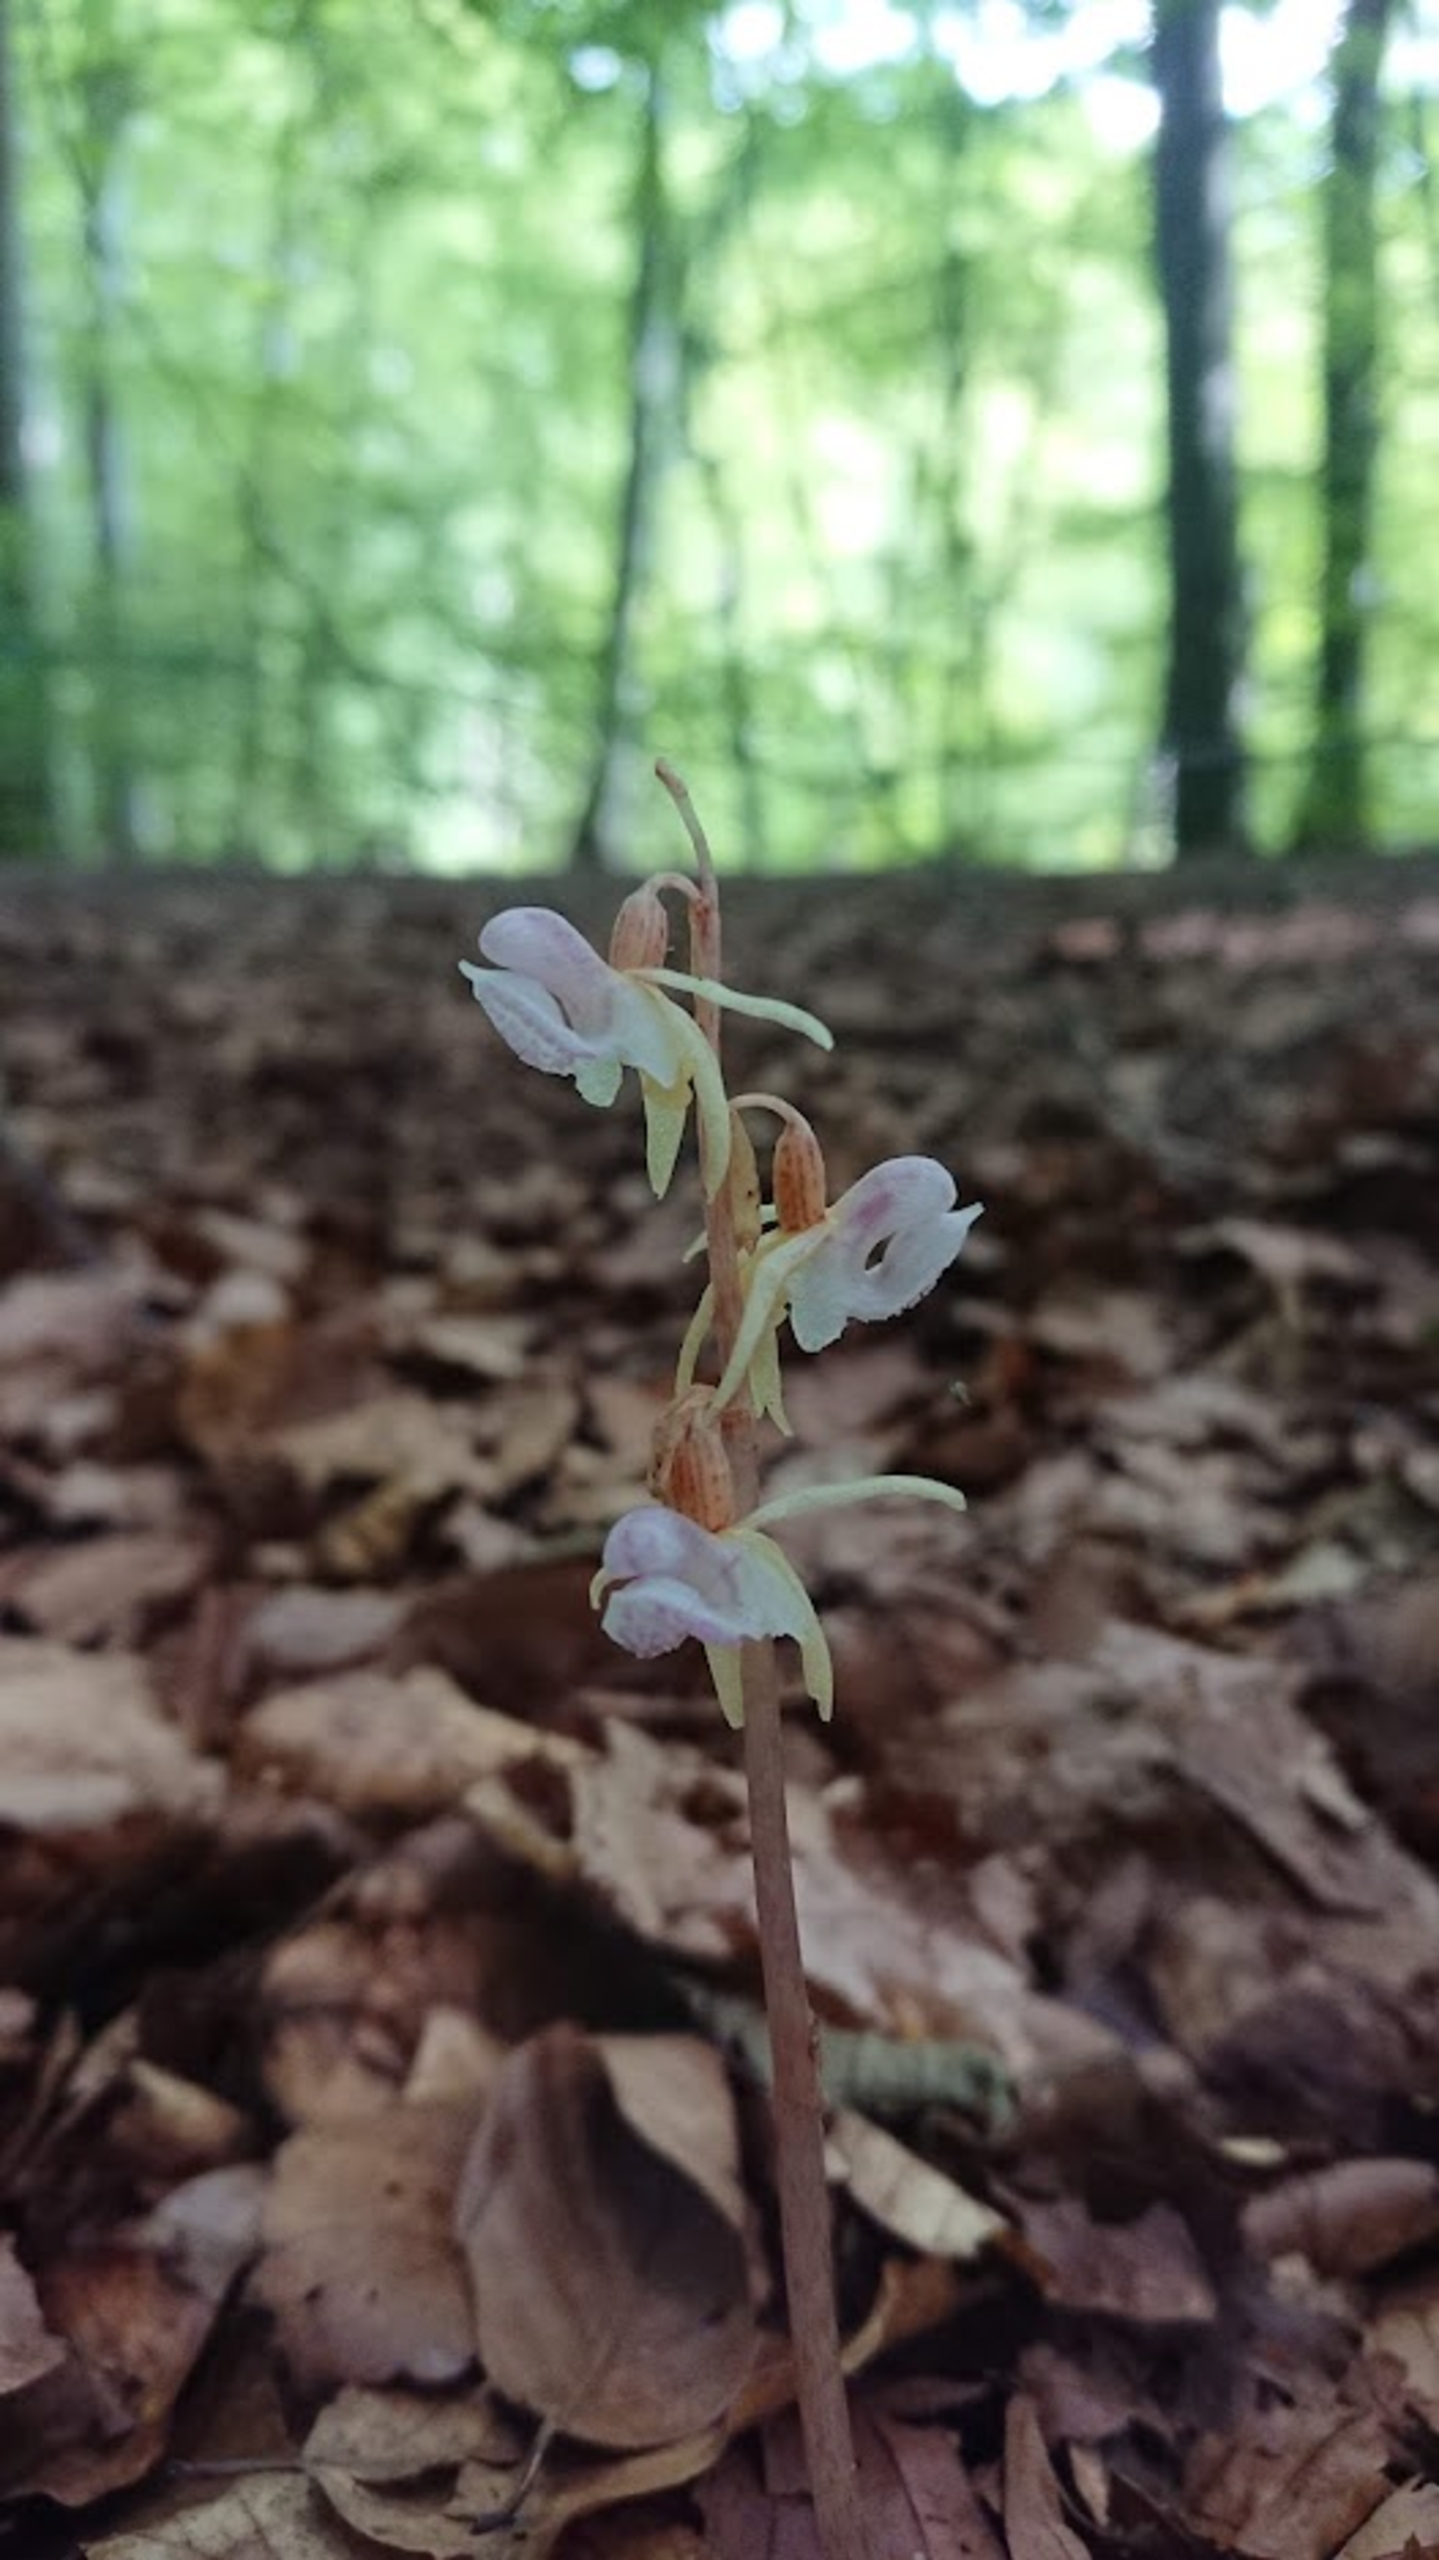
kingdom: Plantae
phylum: Tracheophyta
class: Liliopsida
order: Asparagales
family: Orchidaceae
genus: Epipogium
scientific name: Epipogium aphyllum
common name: Knælæbe
